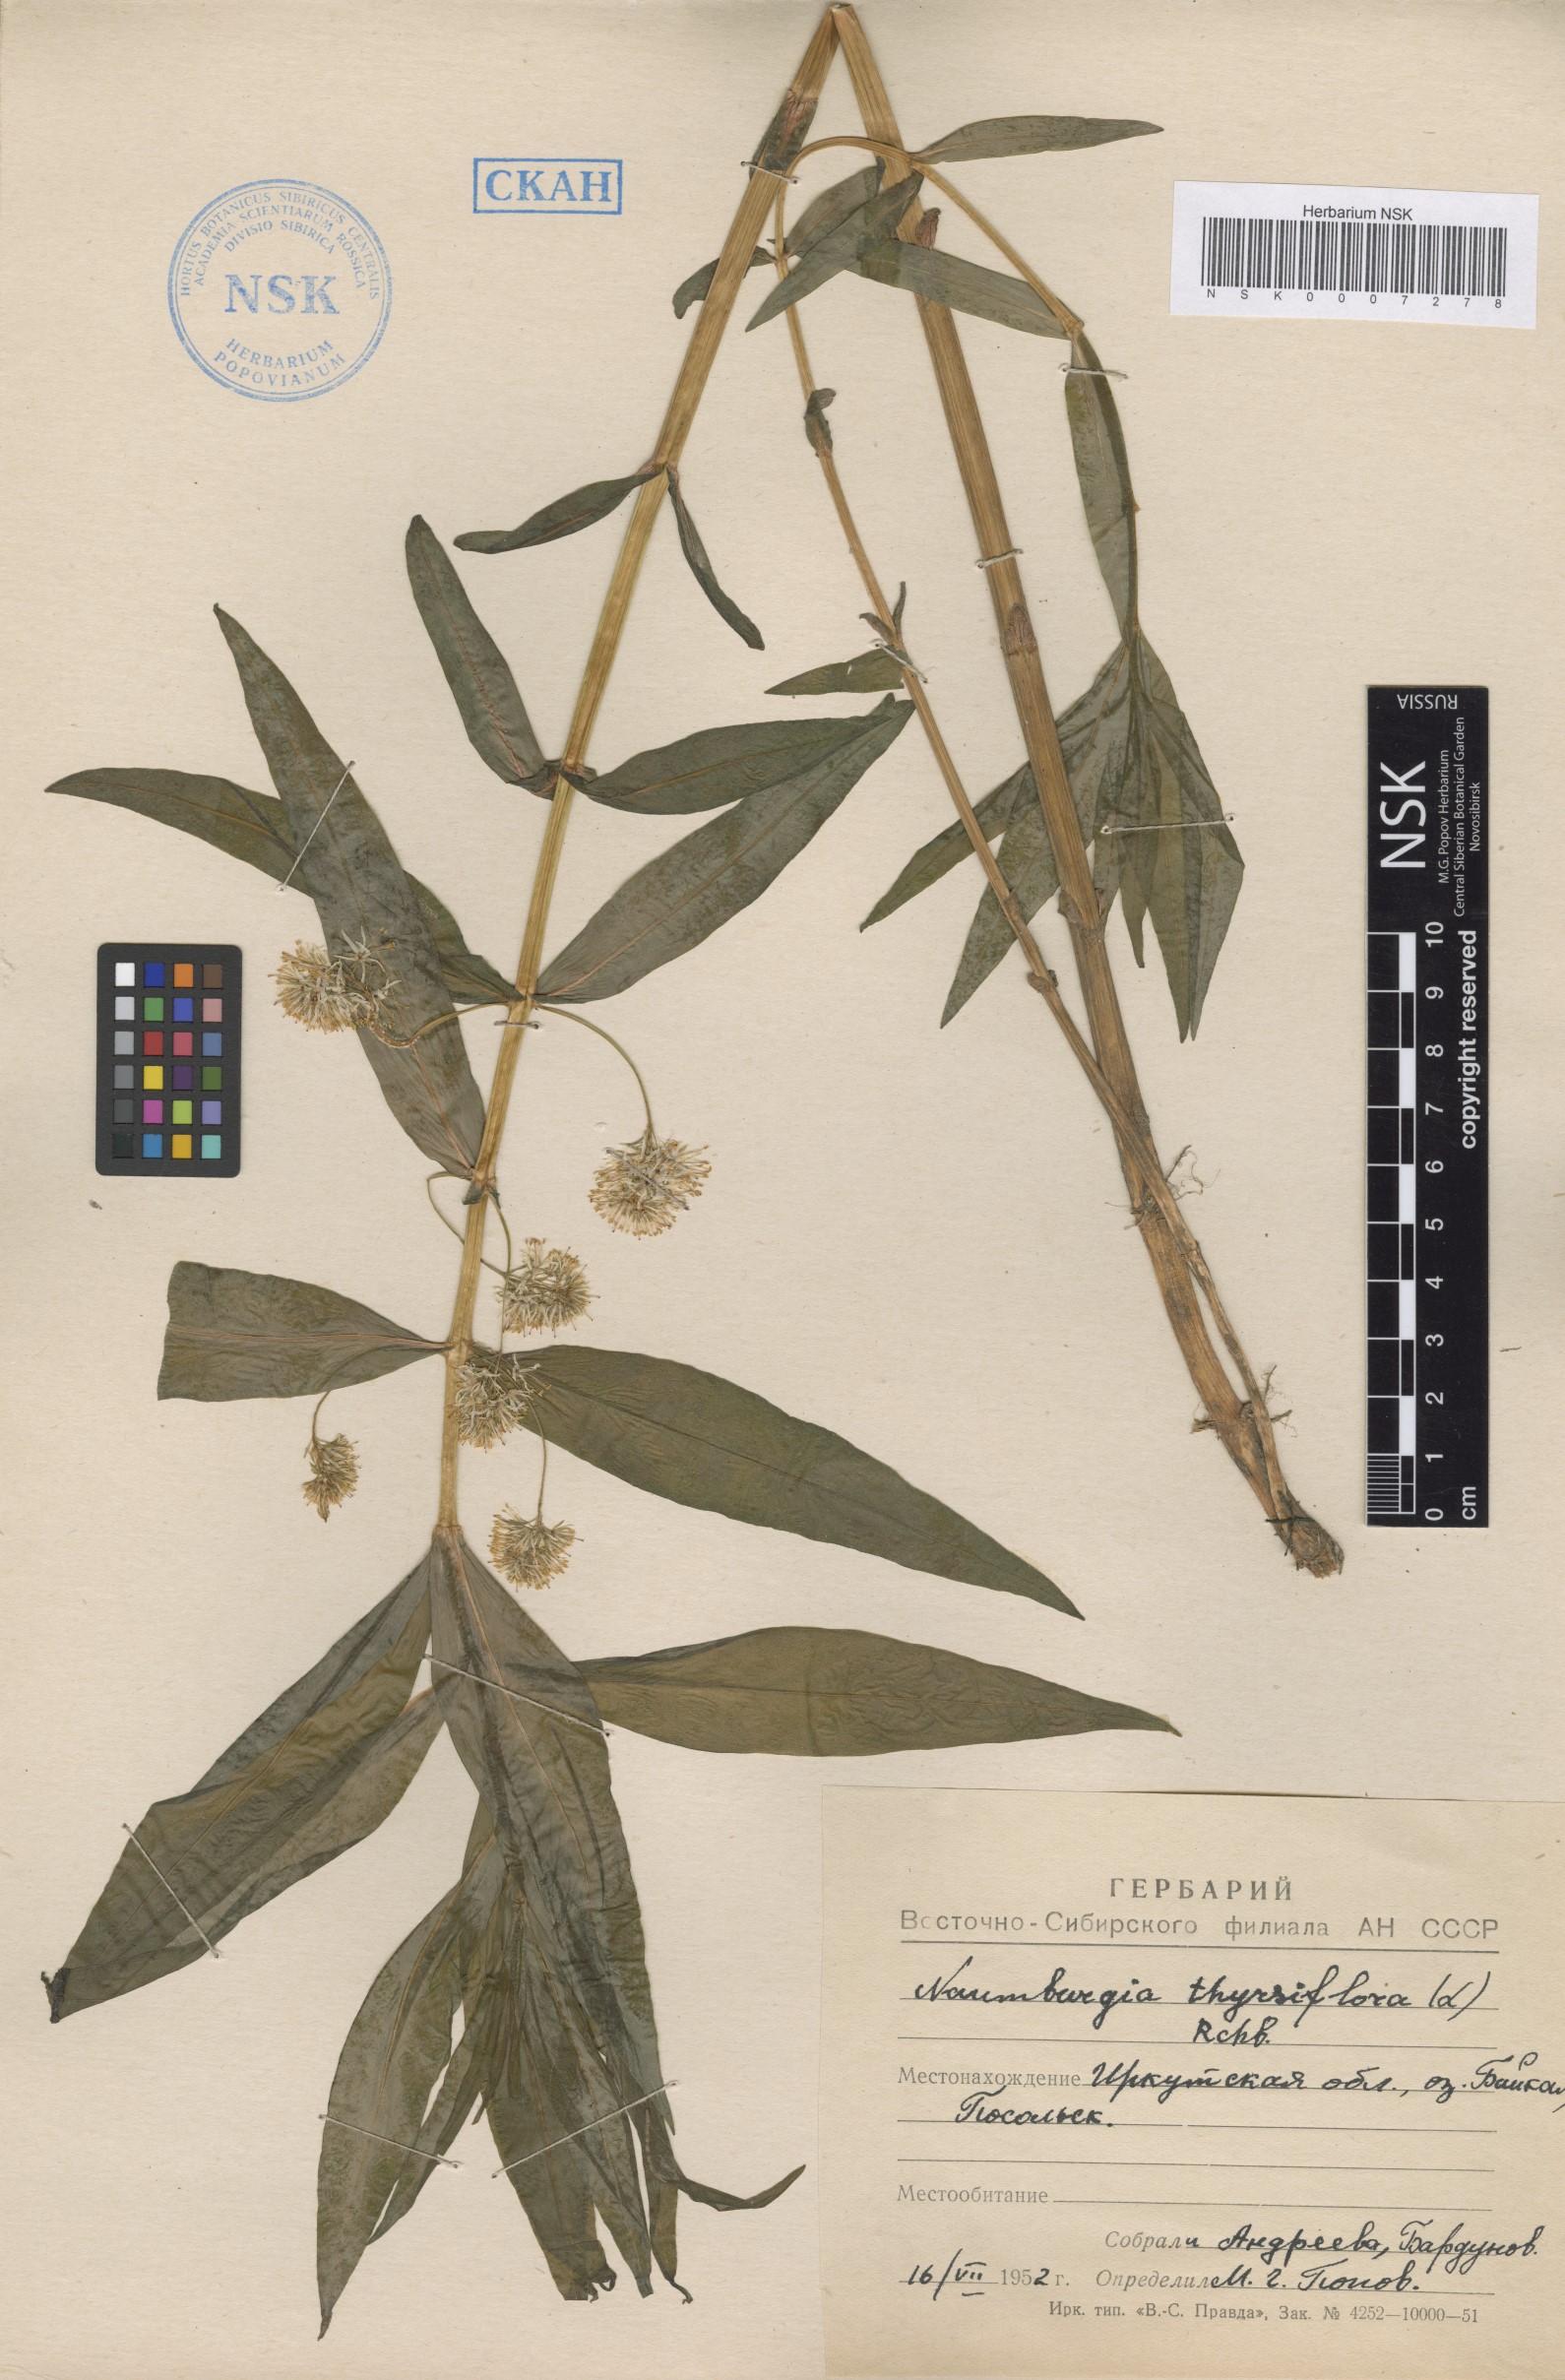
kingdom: Plantae
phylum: Tracheophyta
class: Magnoliopsida
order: Ericales
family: Primulaceae
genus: Lysimachia
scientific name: Lysimachia thyrsiflora
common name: Tufted loosestrife
